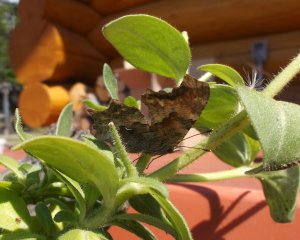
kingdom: Animalia
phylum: Arthropoda
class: Insecta
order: Lepidoptera
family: Nymphalidae
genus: Polygonia
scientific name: Polygonia faunus
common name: Green Comma
